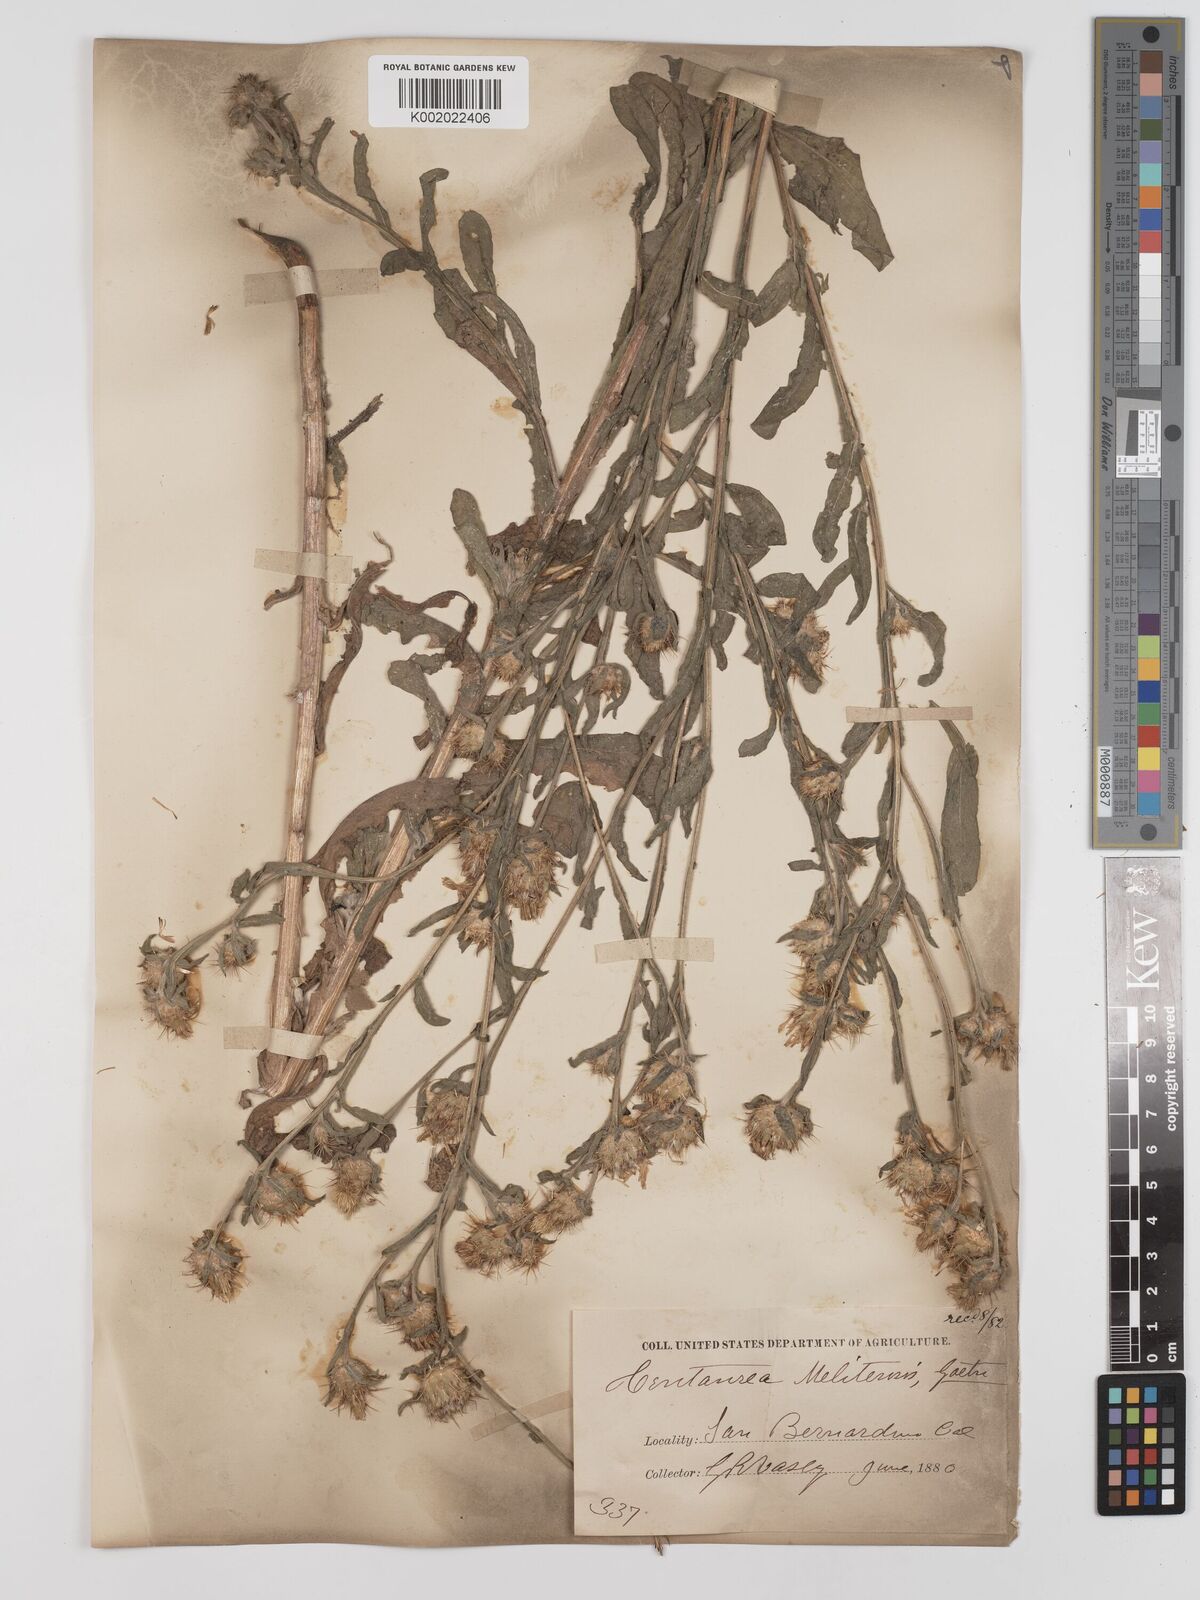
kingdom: Plantae
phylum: Tracheophyta
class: Magnoliopsida
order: Asterales
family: Asteraceae
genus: Centaurea
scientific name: Centaurea melitensis
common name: Maltese star-thistle
